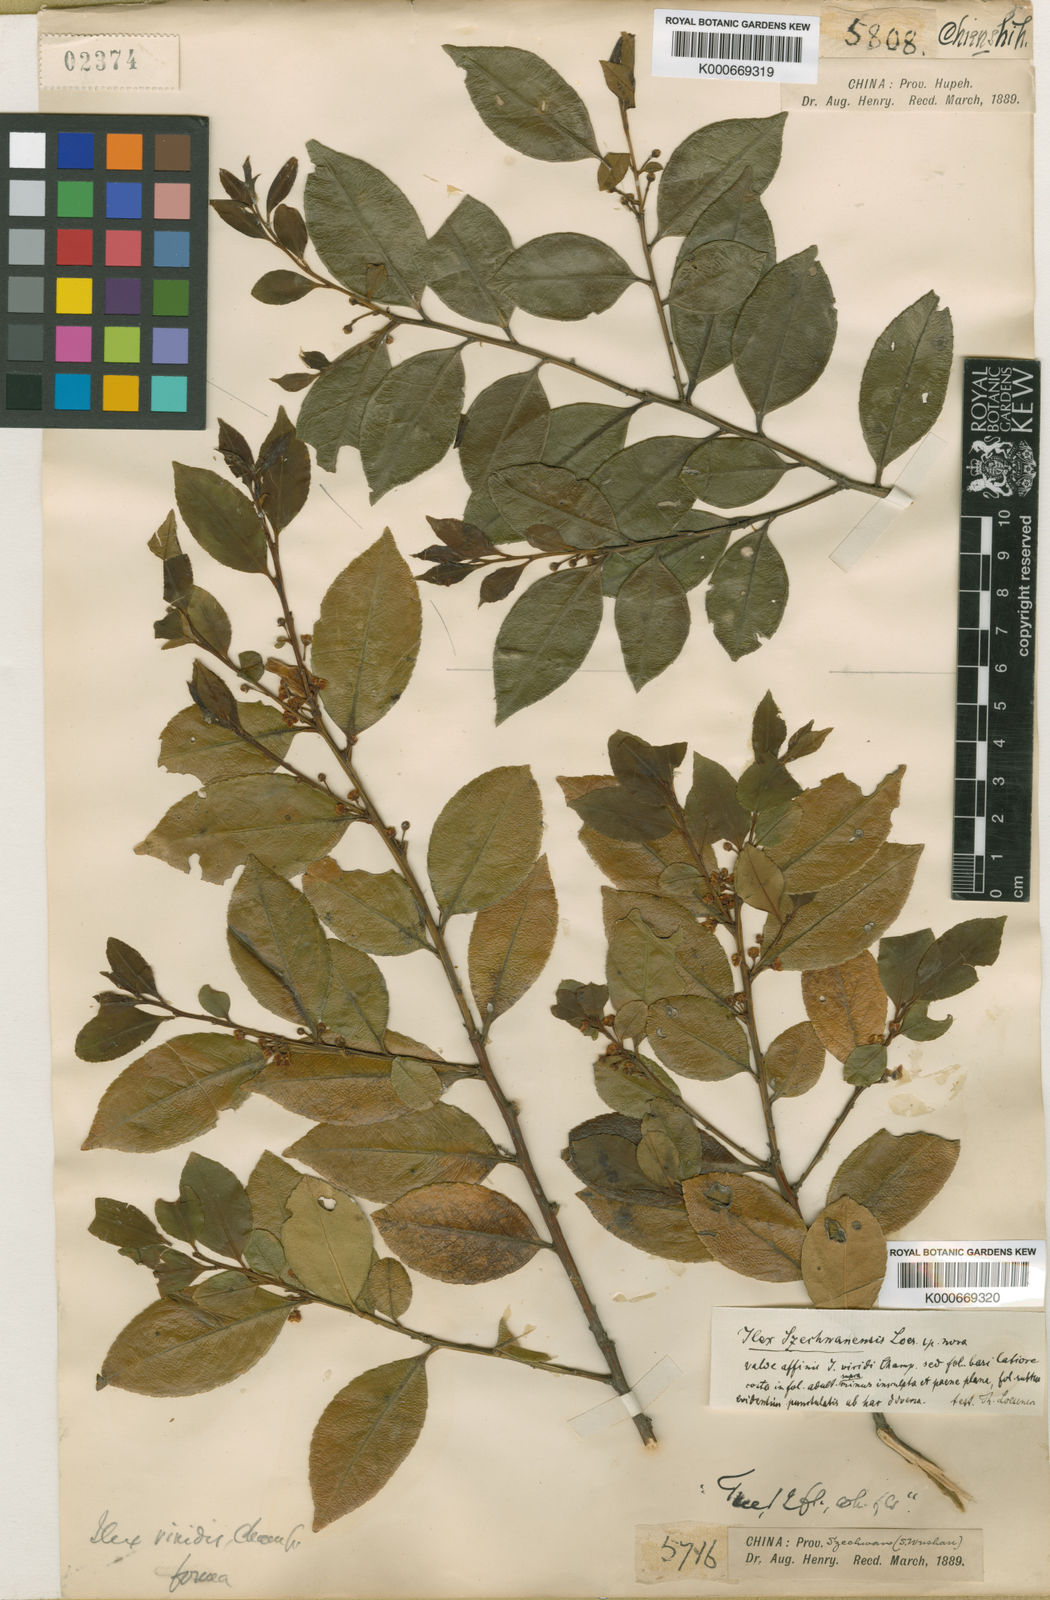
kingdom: Plantae
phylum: Tracheophyta
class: Magnoliopsida
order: Aquifoliales
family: Aquifoliaceae
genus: Ilex
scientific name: Ilex szechwanensis
